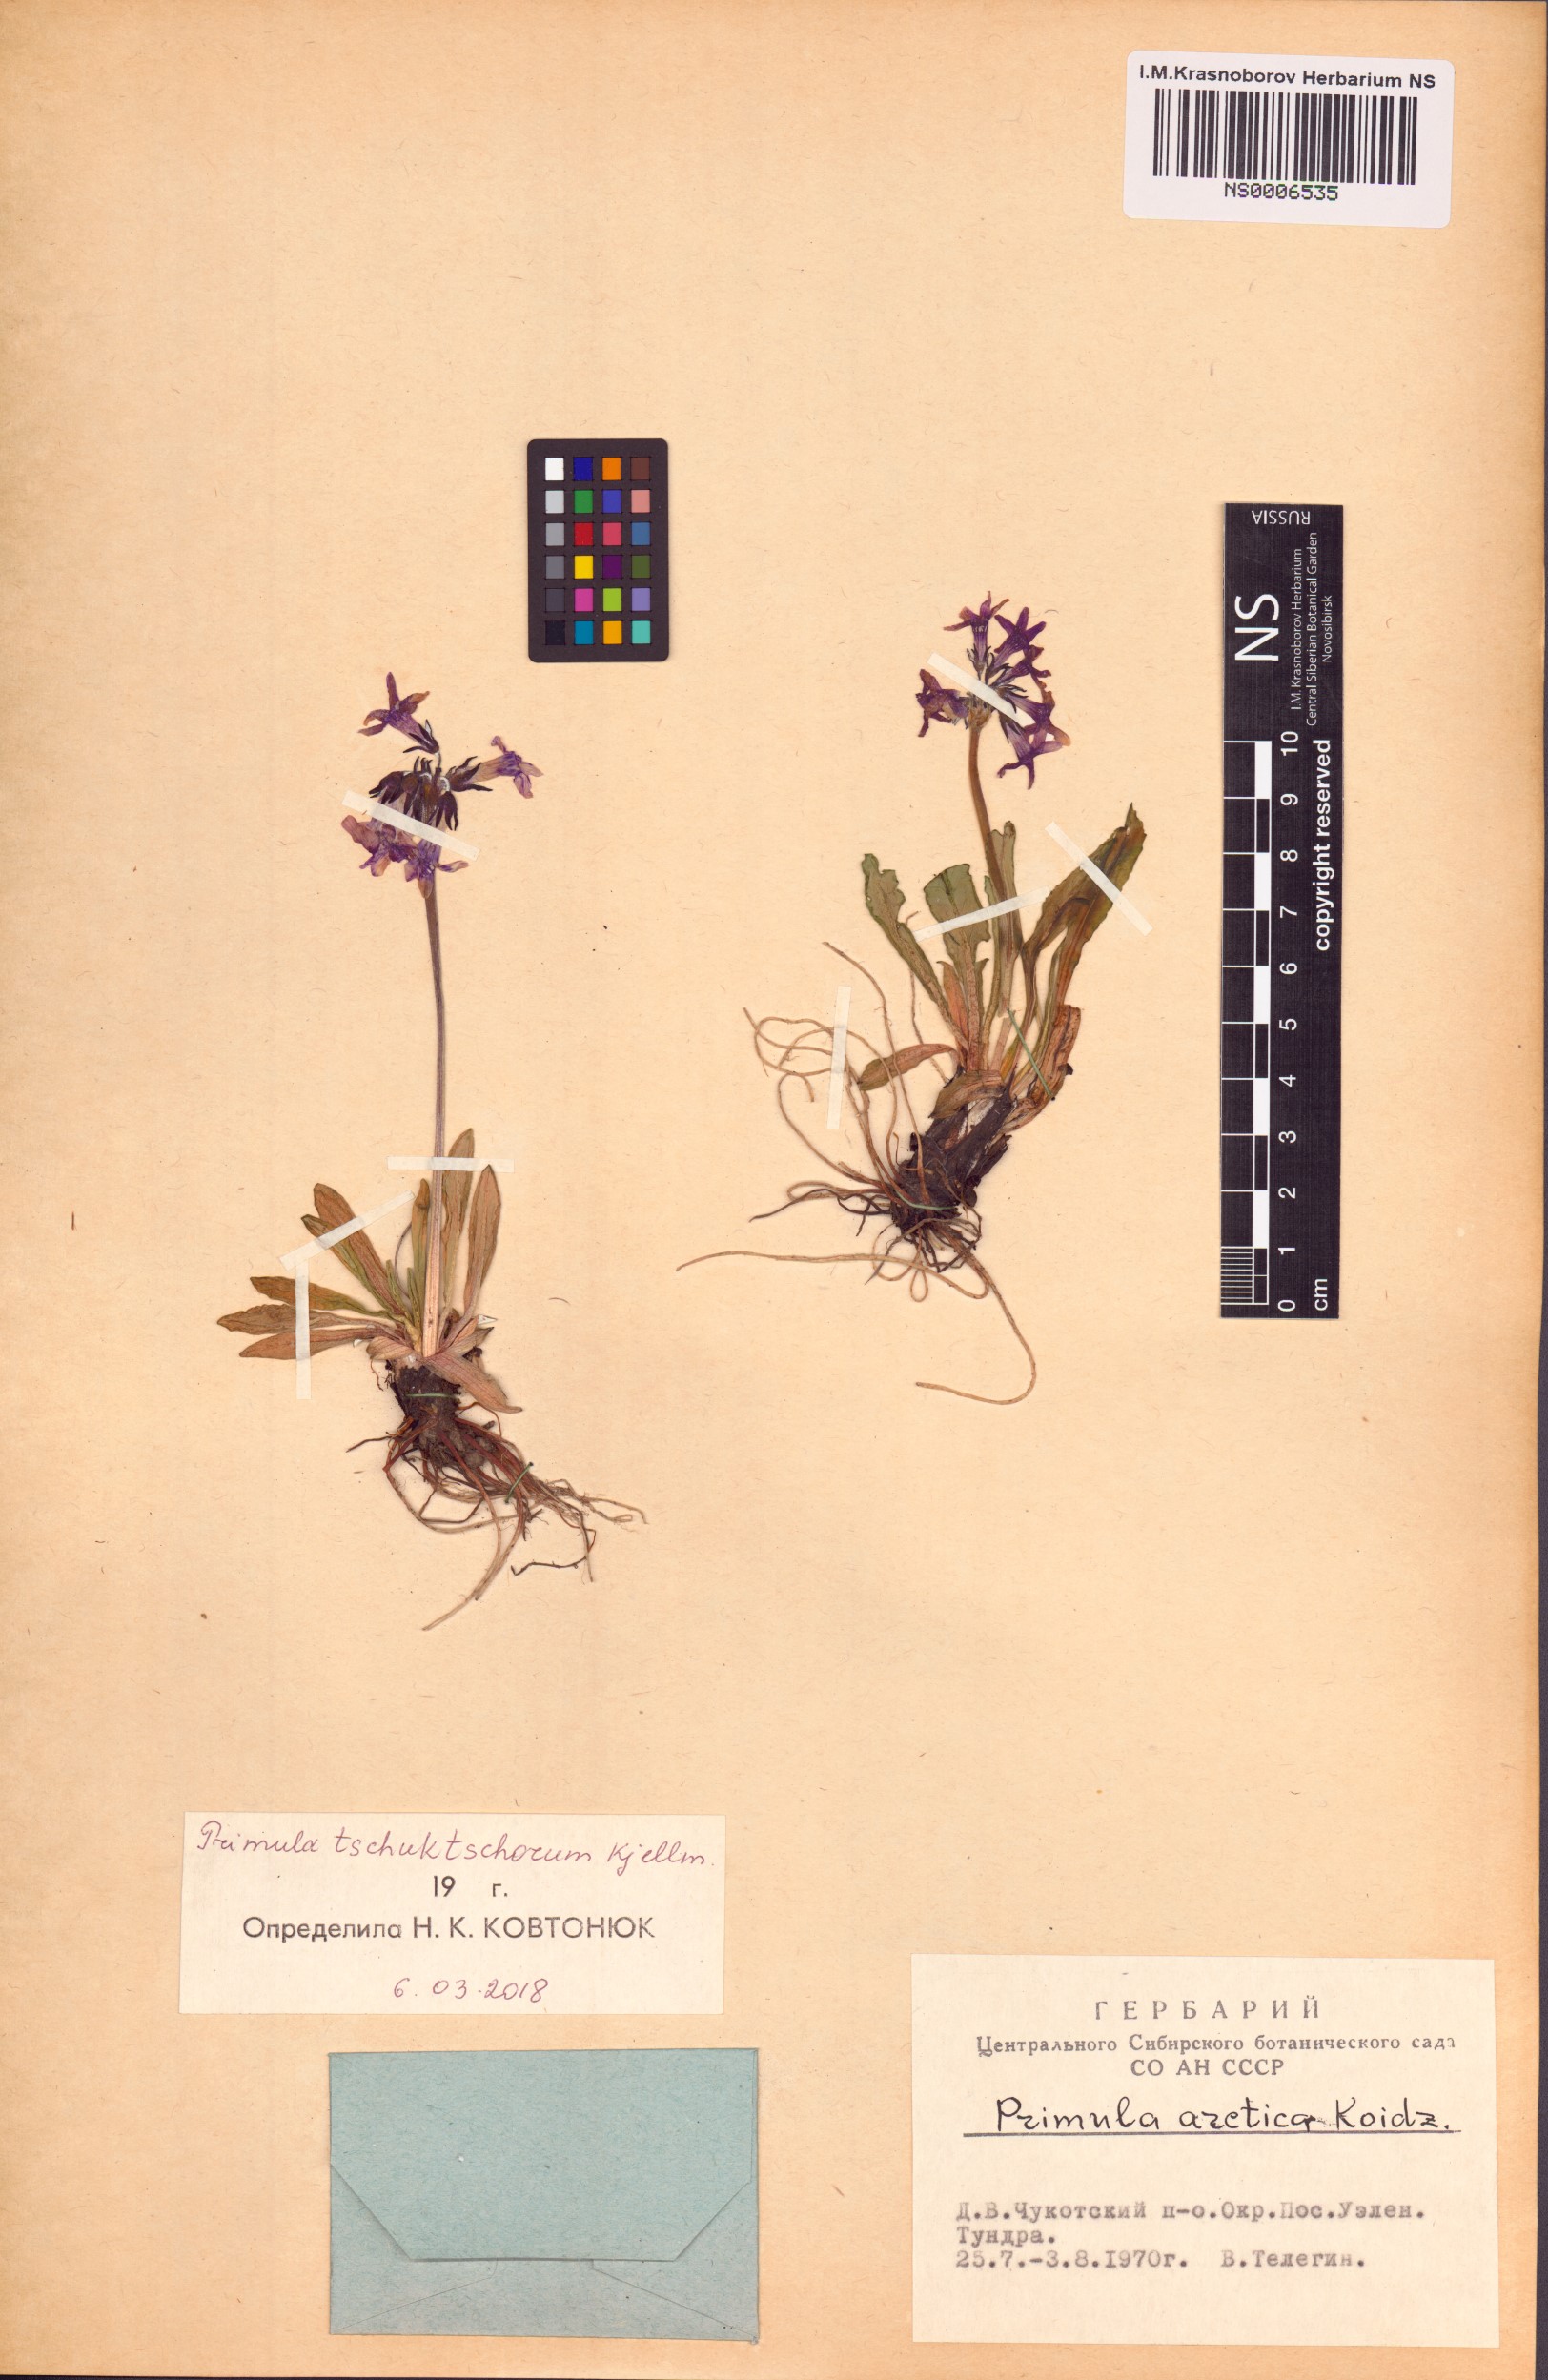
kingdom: Plantae
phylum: Tracheophyta
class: Magnoliopsida
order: Ericales
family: Primulaceae
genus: Primula
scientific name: Primula tschuktschorum
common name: Chukchi primrose
